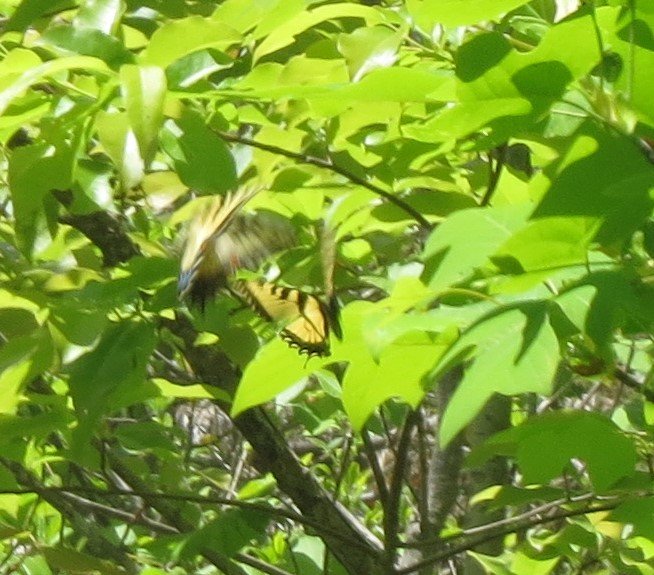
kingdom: Animalia
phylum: Arthropoda
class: Insecta
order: Lepidoptera
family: Papilionidae
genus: Pterourus
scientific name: Pterourus glaucus
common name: Eastern Tiger Swallowtail
